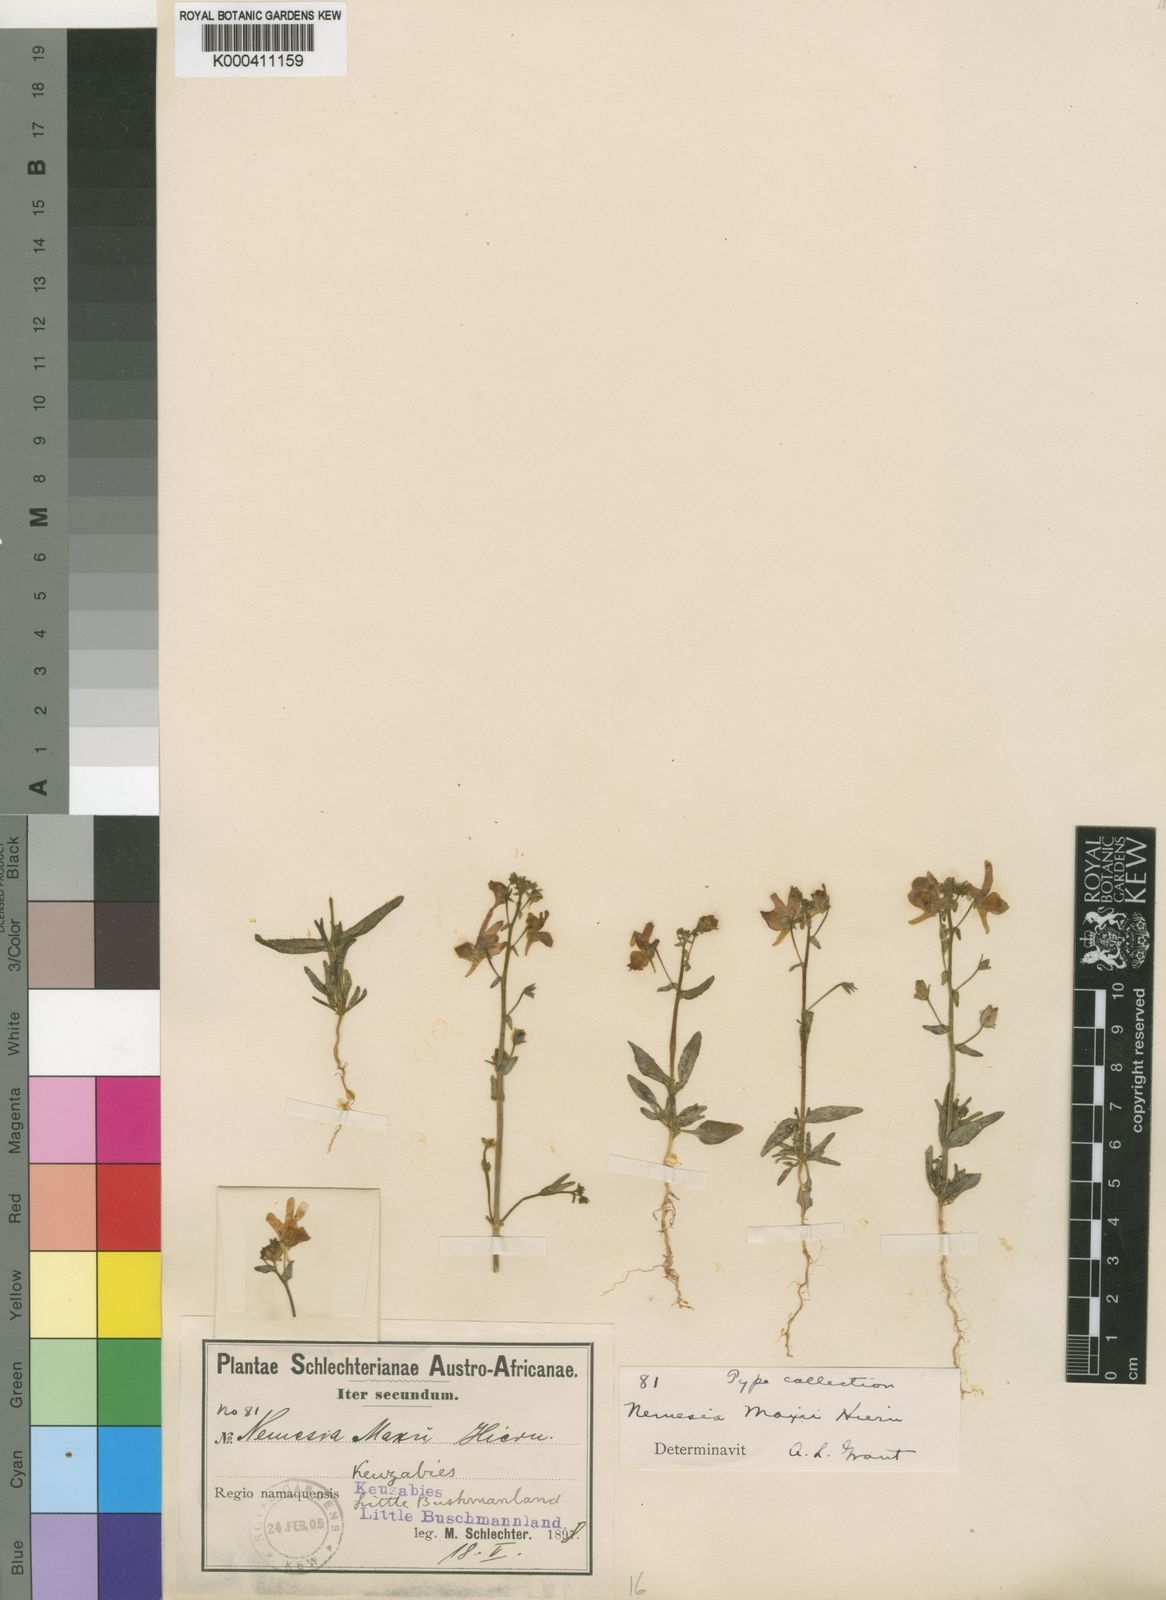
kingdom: Plantae
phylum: Tracheophyta
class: Magnoliopsida
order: Lamiales
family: Scrophulariaceae
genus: Nemesia
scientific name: Nemesia maxii
